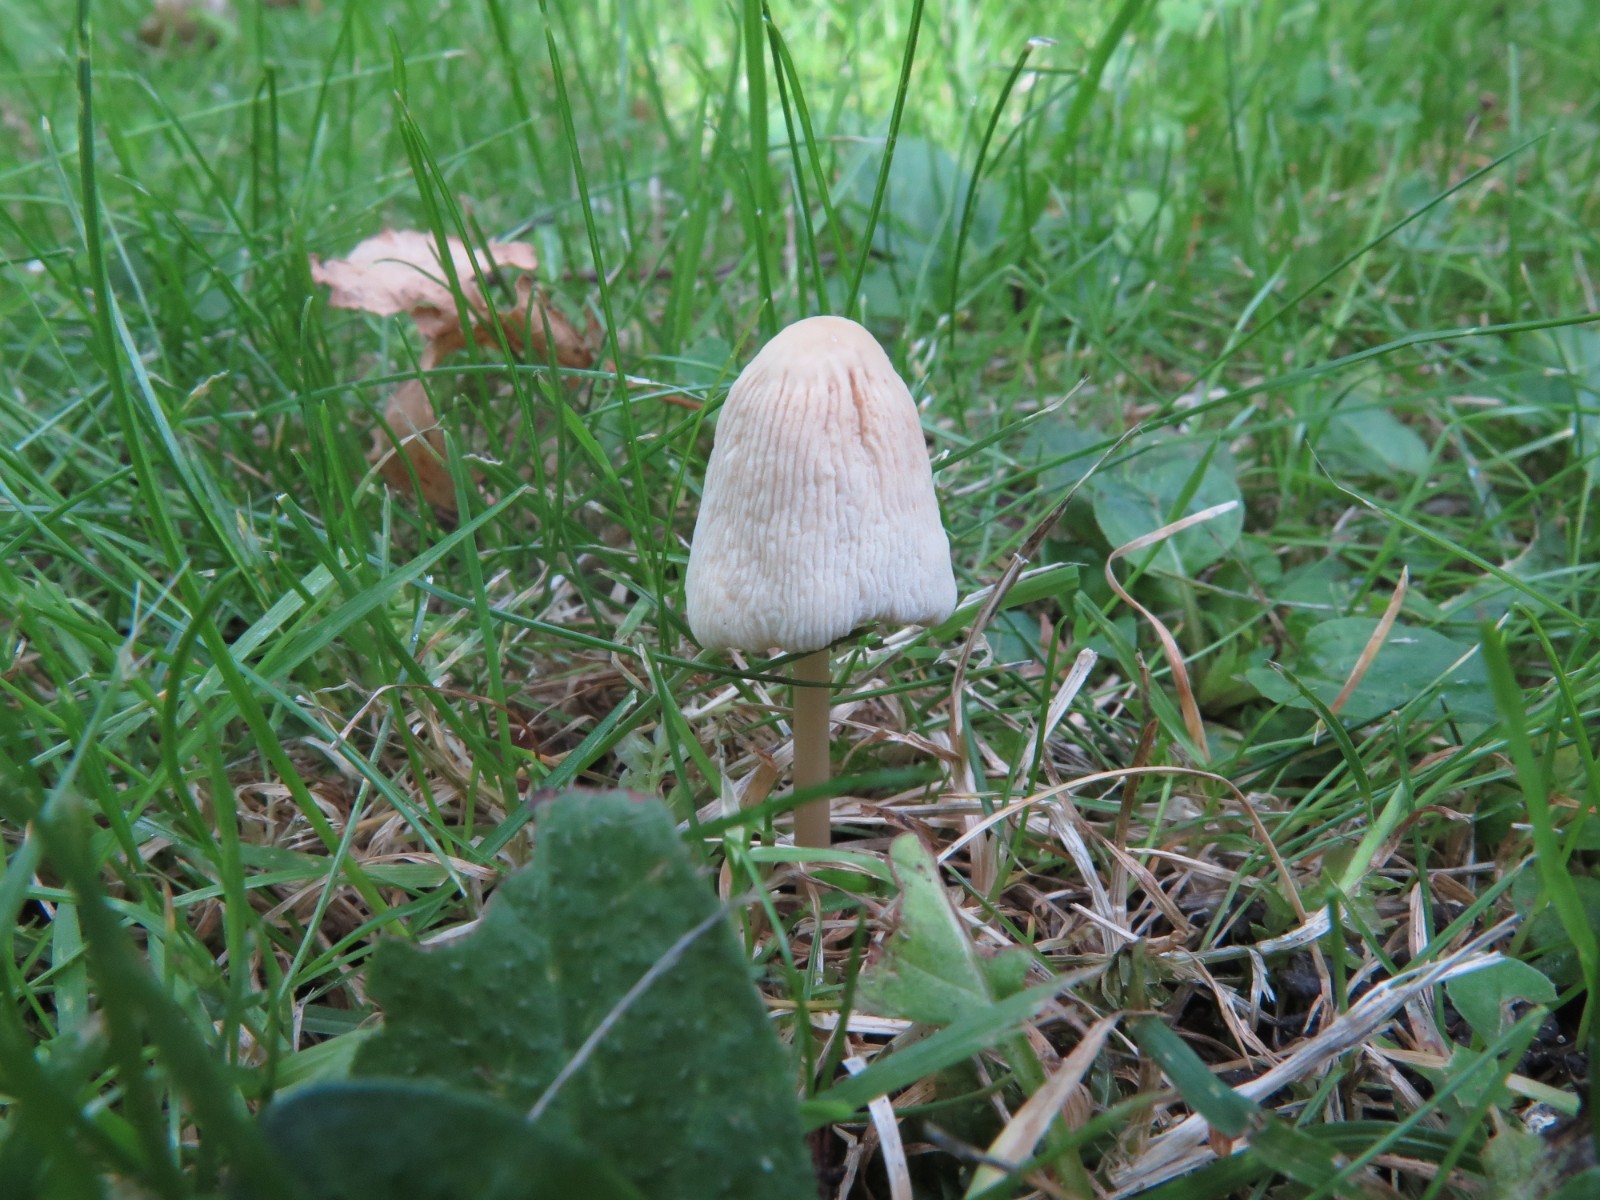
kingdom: Fungi
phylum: Basidiomycota
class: Agaricomycetes
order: Agaricales
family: Bolbitiaceae
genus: Conocybe
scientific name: Conocybe apala
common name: mælkehvid keglehat
